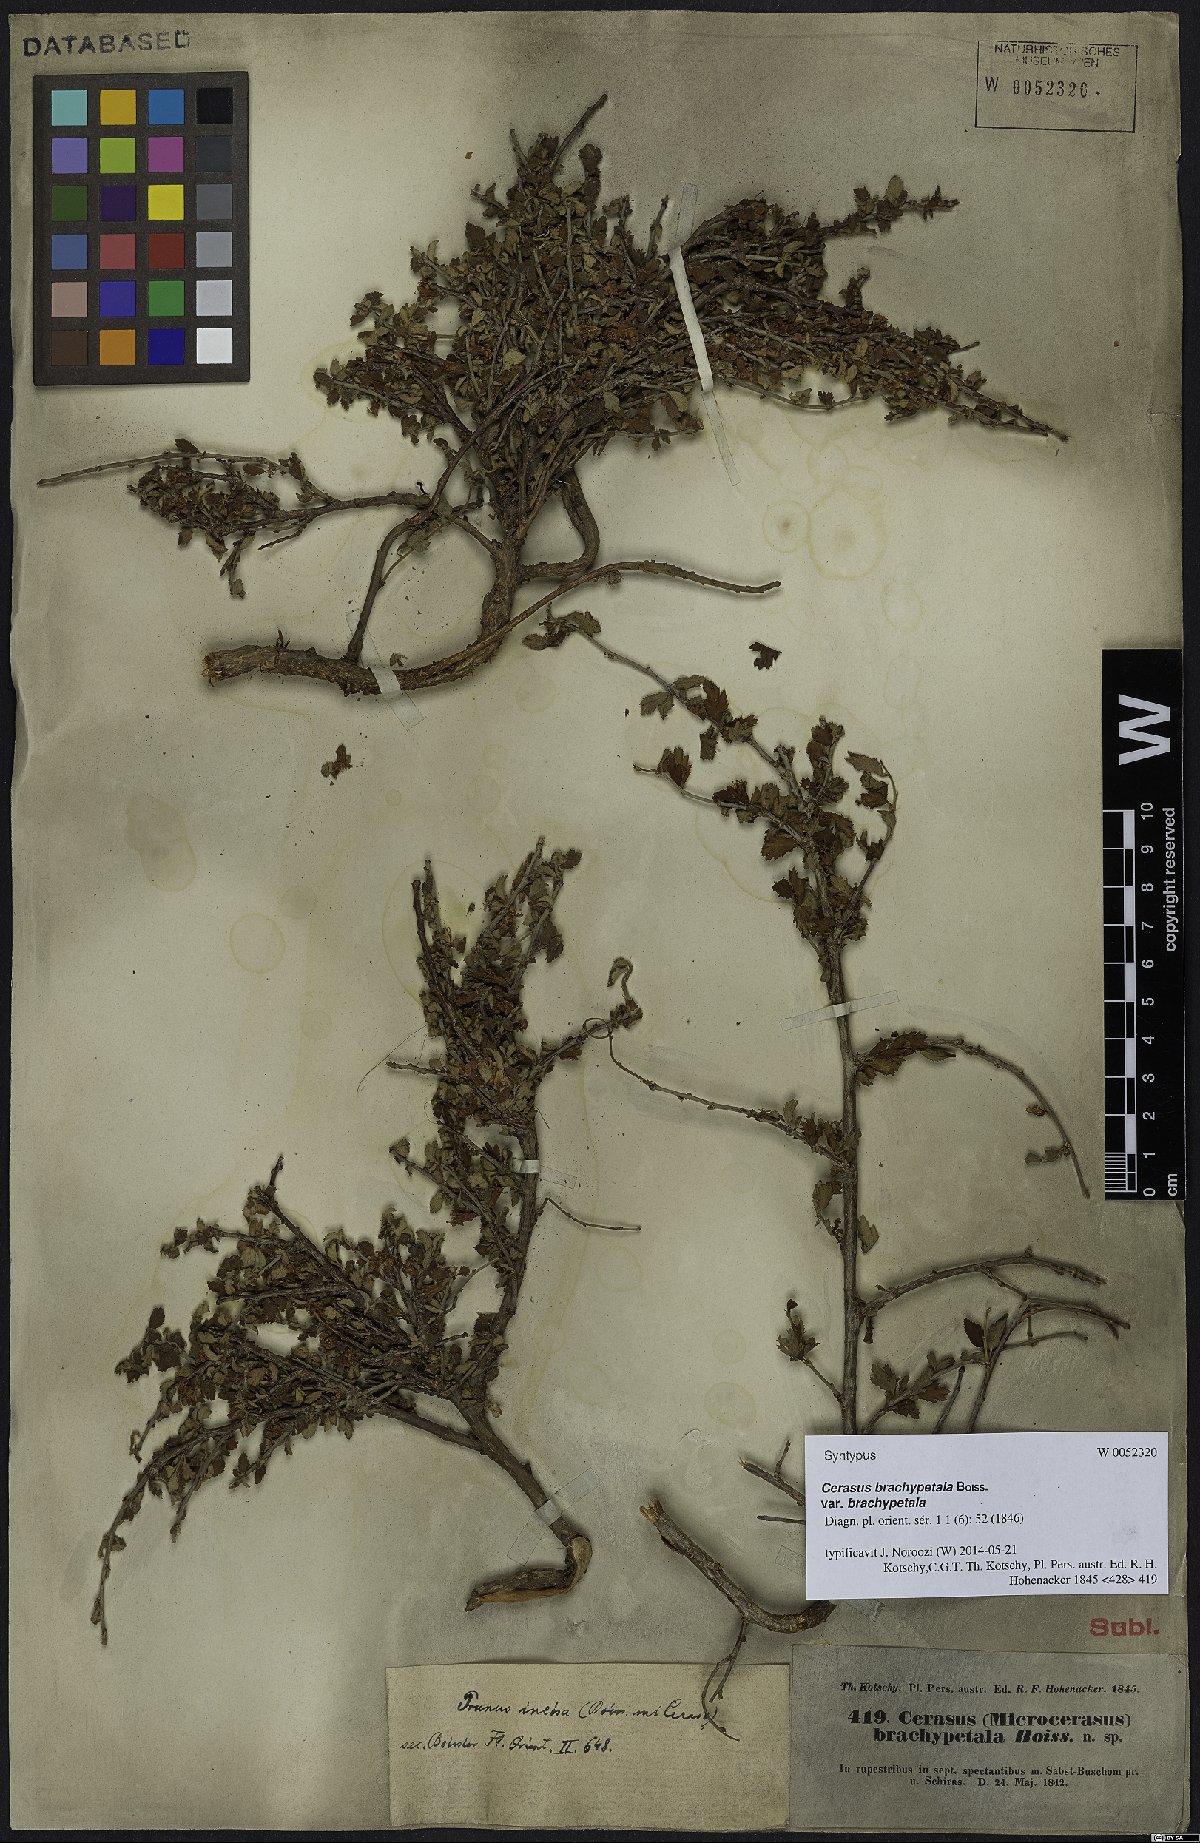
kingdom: Plantae
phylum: Tracheophyta
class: Magnoliopsida
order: Rosales
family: Rosaceae
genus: Prunus
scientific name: Prunus brachypetala
